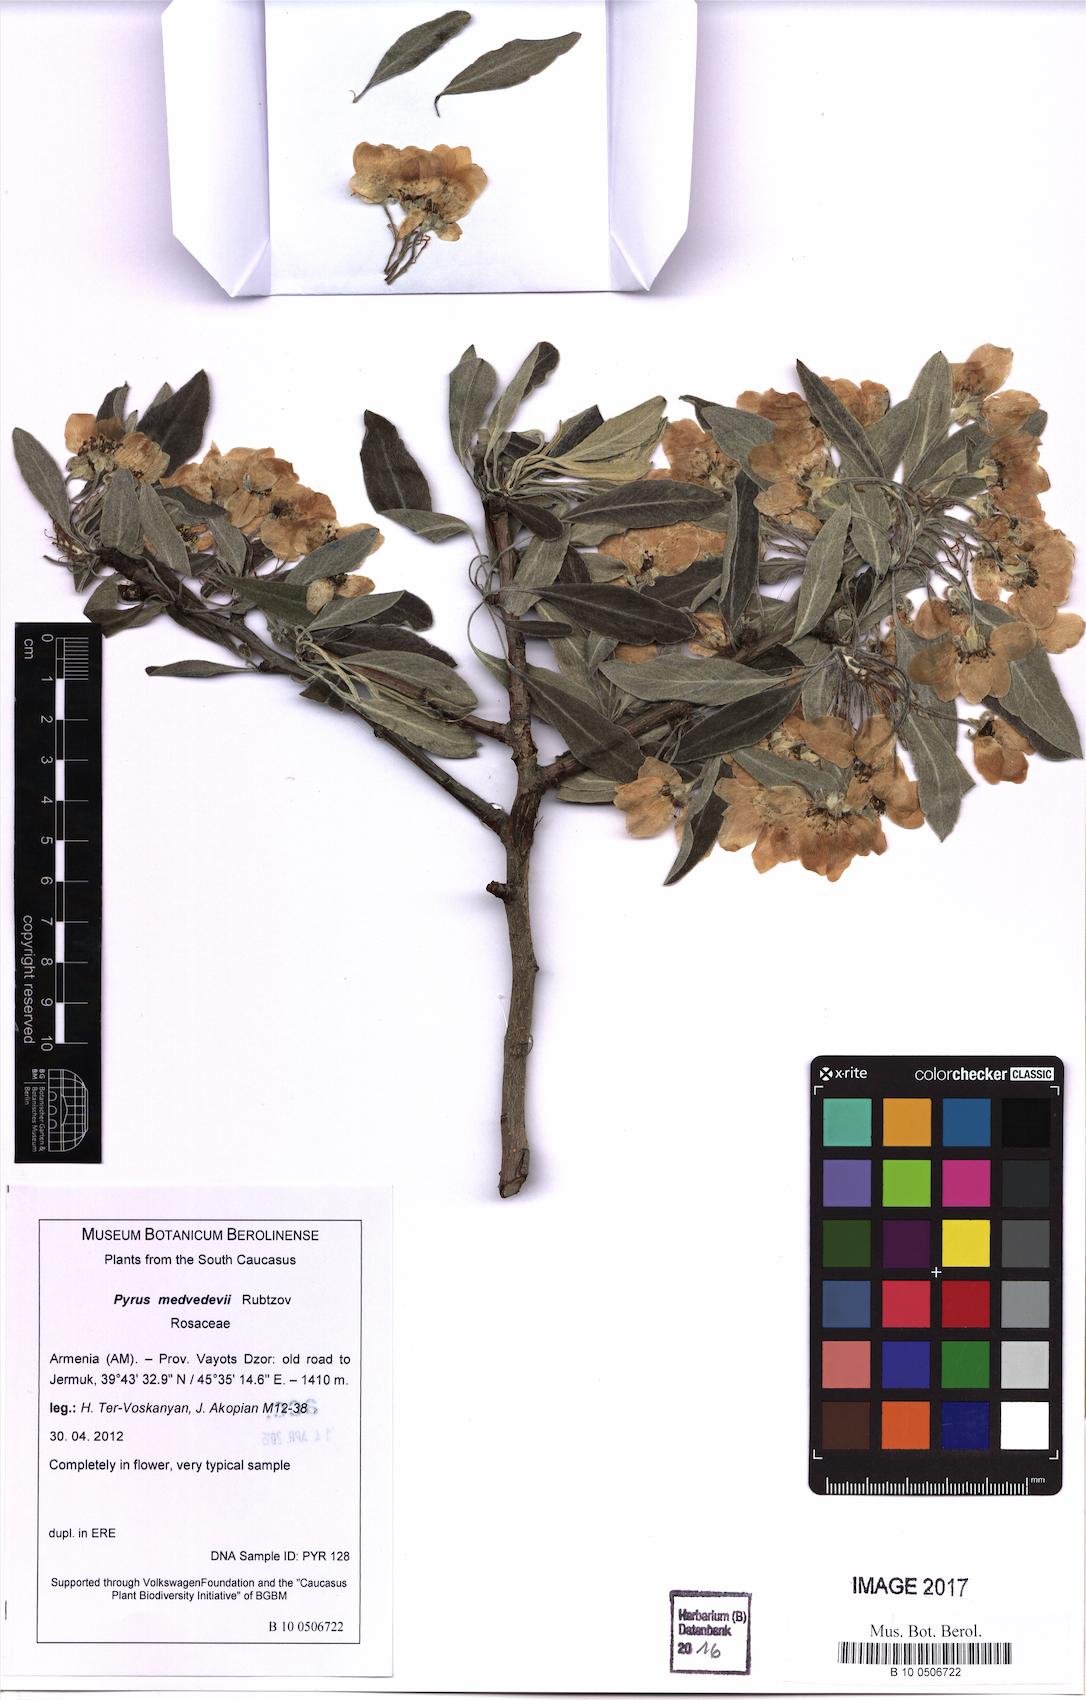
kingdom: Plantae
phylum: Tracheophyta
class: Magnoliopsida
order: Rosales
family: Rosaceae
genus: Pyrus
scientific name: Pyrus medvedevii
